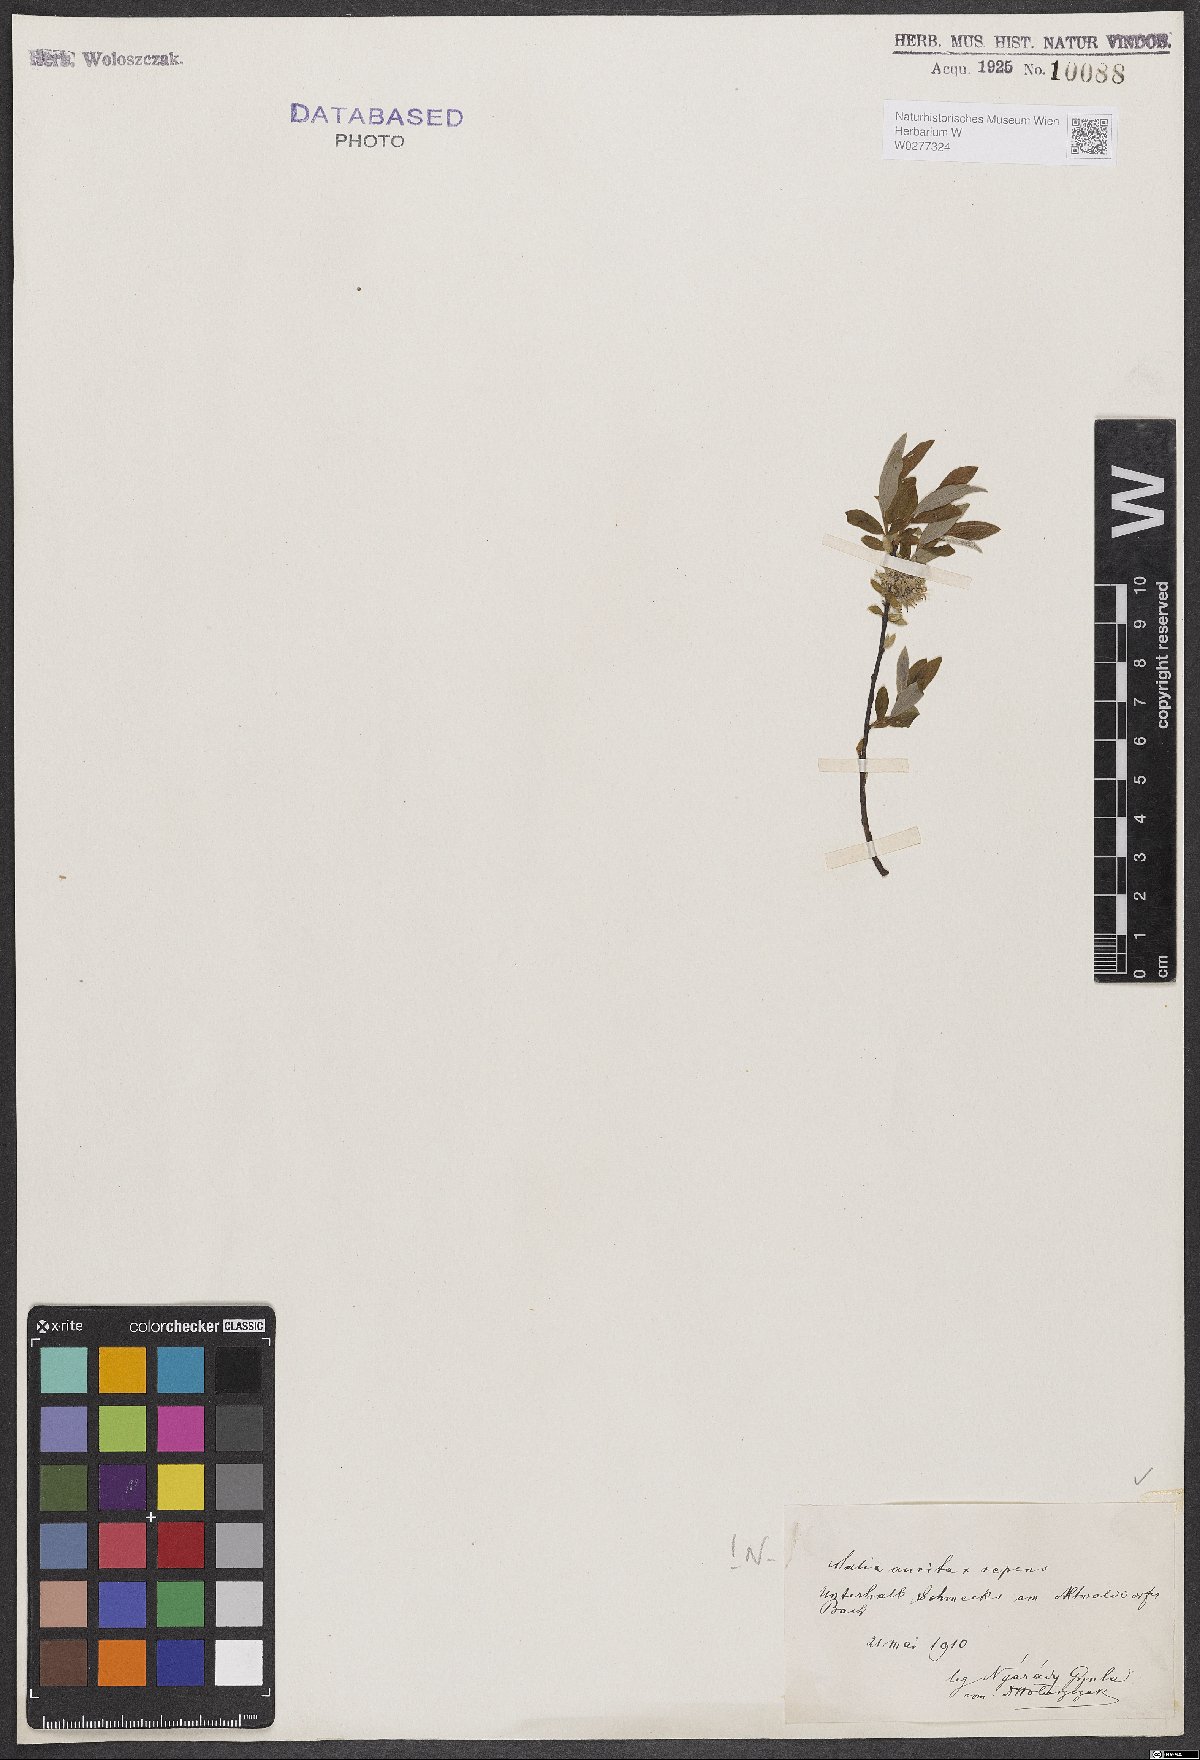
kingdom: Plantae
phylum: Tracheophyta
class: Magnoliopsida
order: Malpighiales
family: Salicaceae
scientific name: Salicaceae
